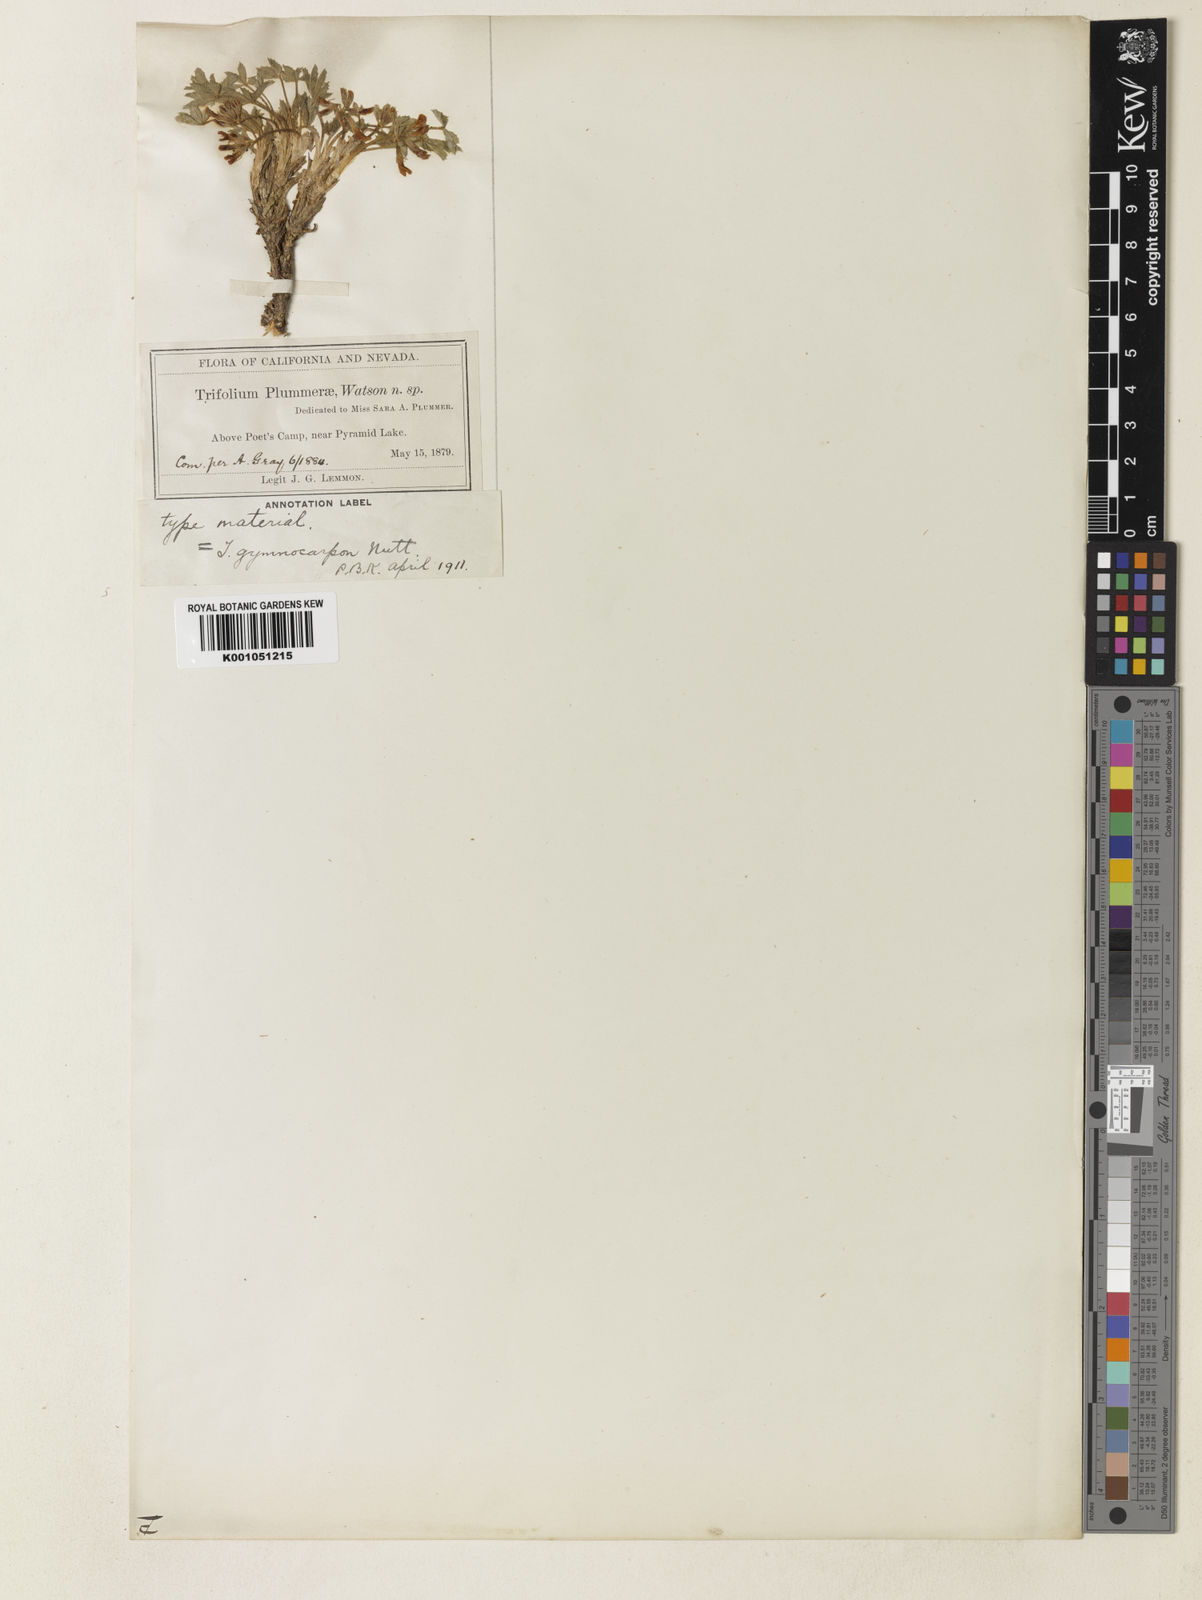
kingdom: Plantae
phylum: Tracheophyta
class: Magnoliopsida
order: Fabales
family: Fabaceae
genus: Trifolium
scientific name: Trifolium gymnocarpon
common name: Tufted clover
